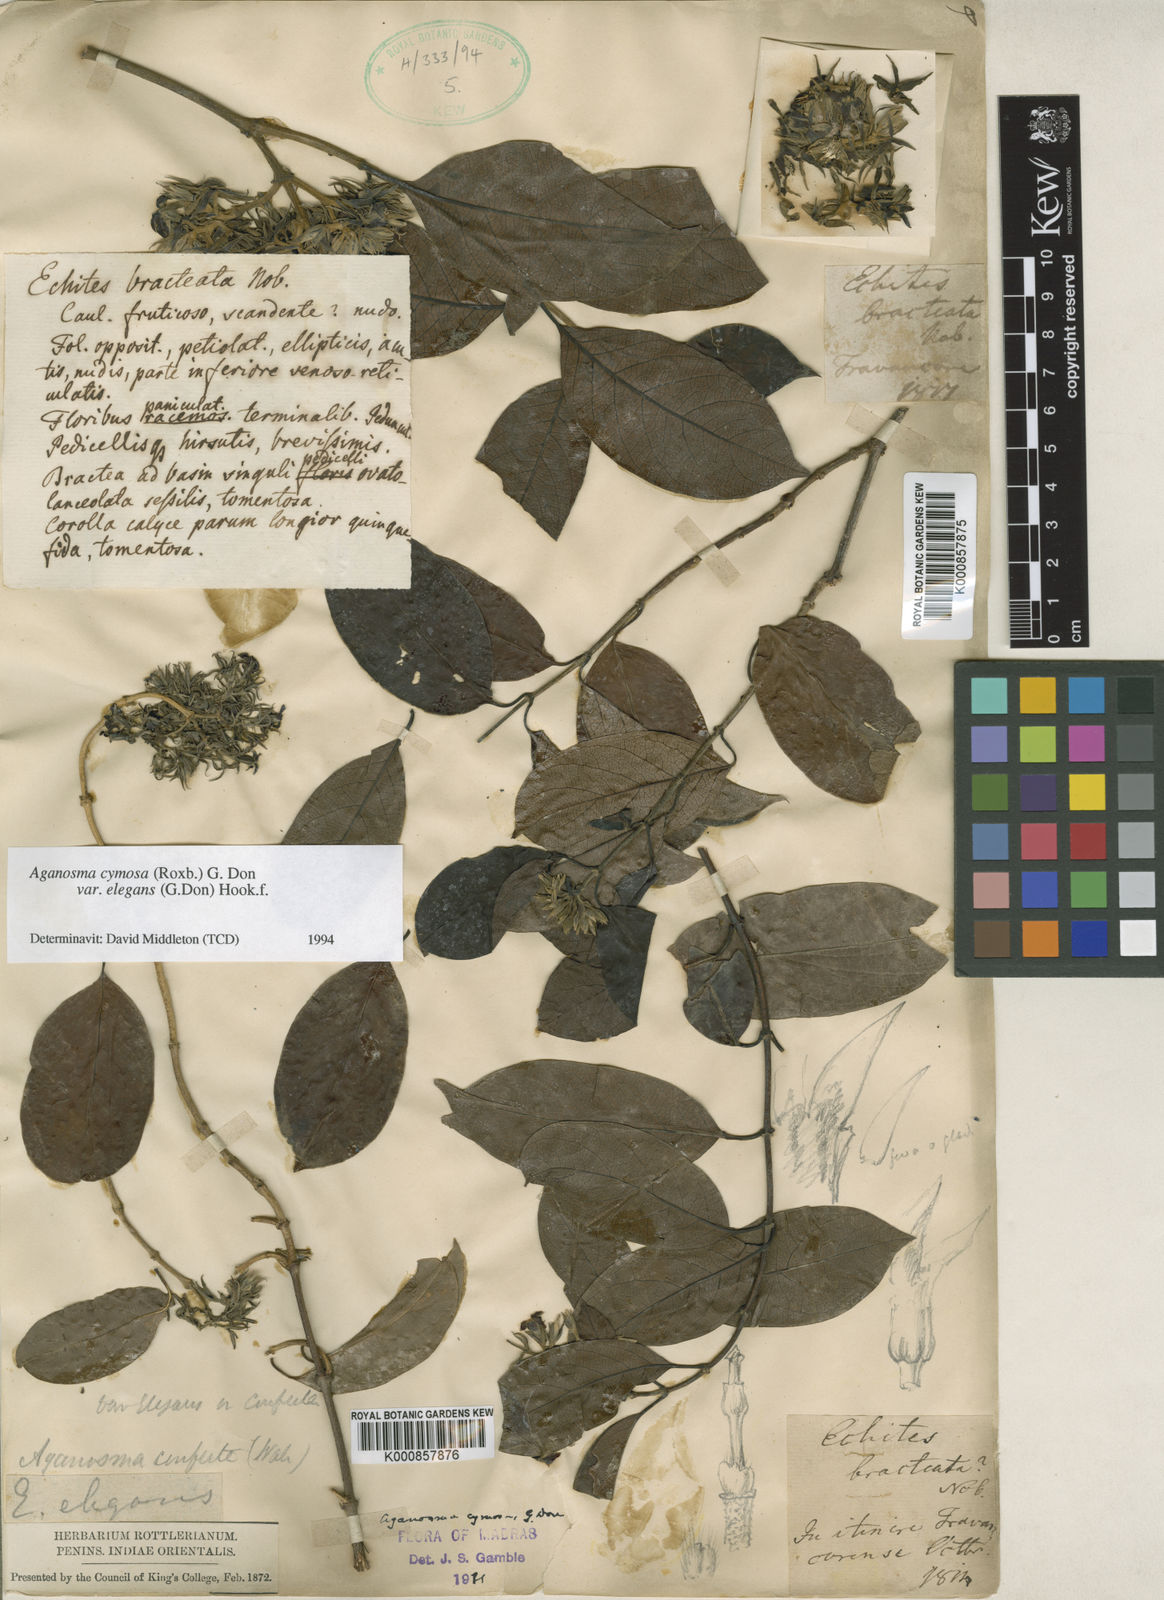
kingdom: Plantae
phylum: Tracheophyta
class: Magnoliopsida
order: Gentianales
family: Apocynaceae
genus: Aganosma
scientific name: Aganosma cymosa
